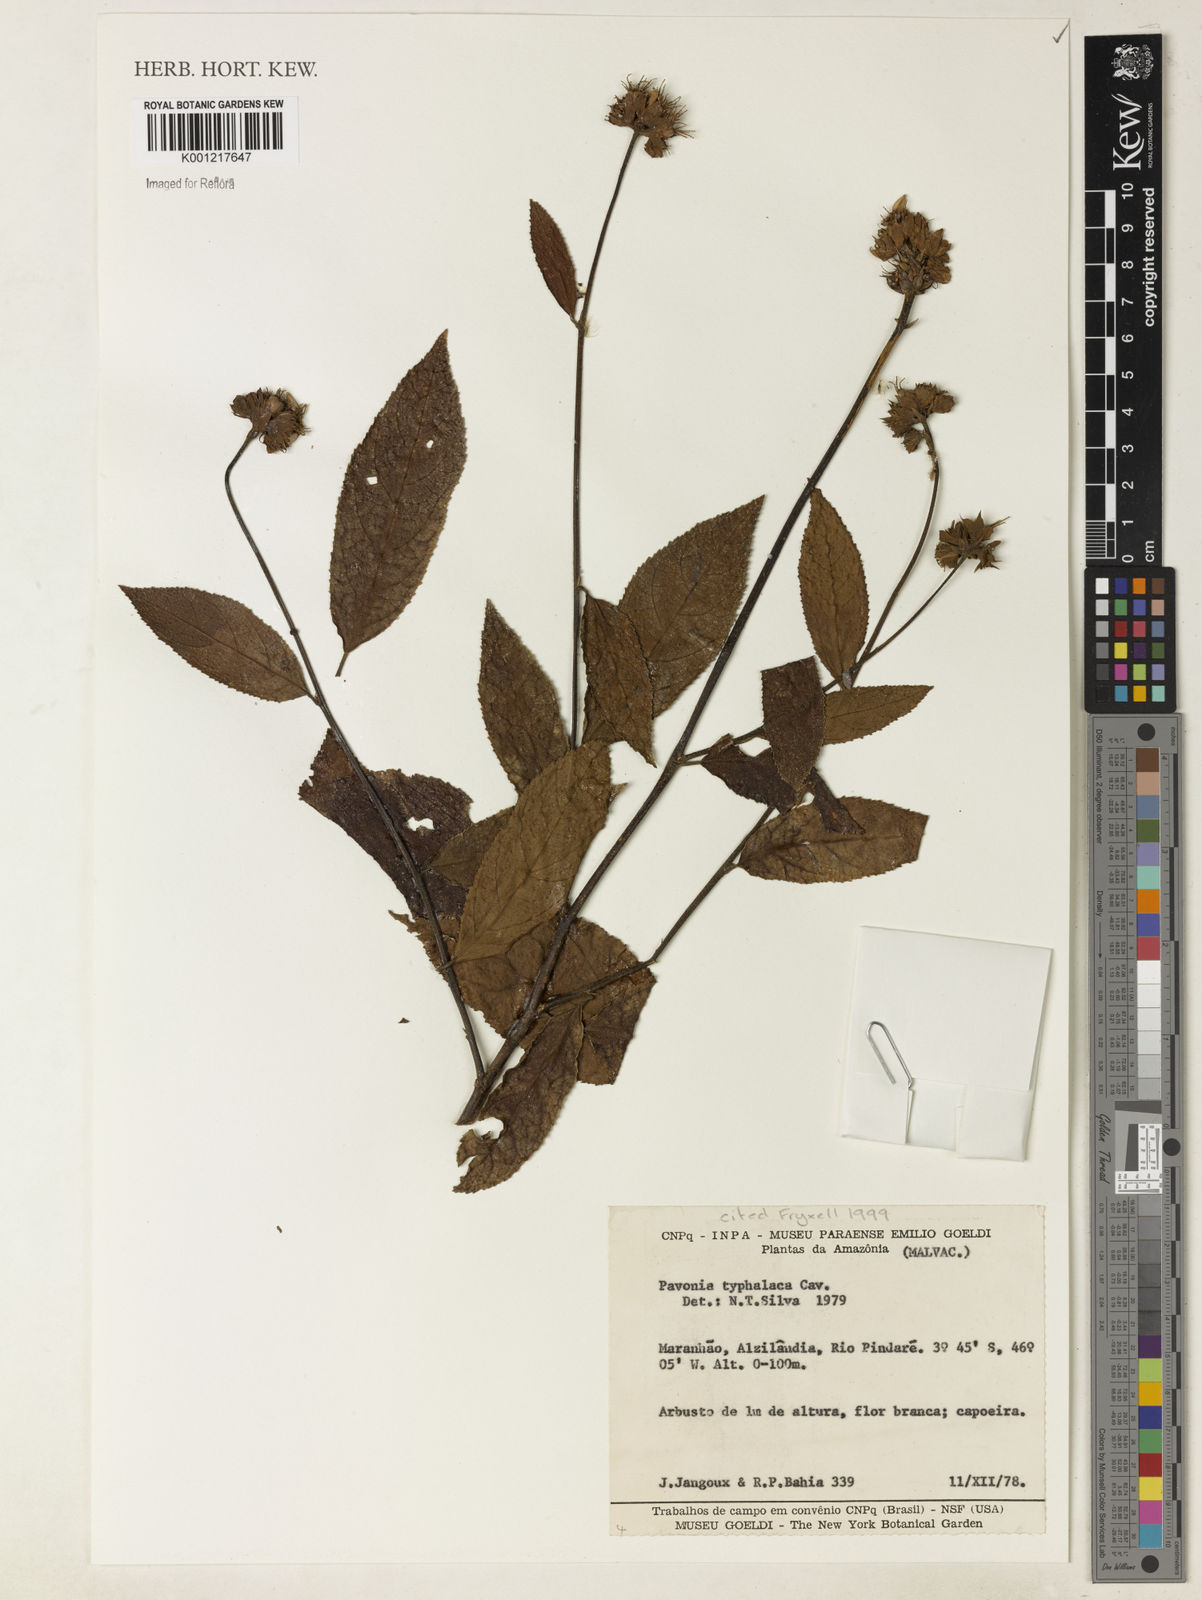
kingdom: Plantae
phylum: Tracheophyta
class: Magnoliopsida
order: Malvales
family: Malvaceae
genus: Pavonia
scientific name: Pavonia castaneifolia
